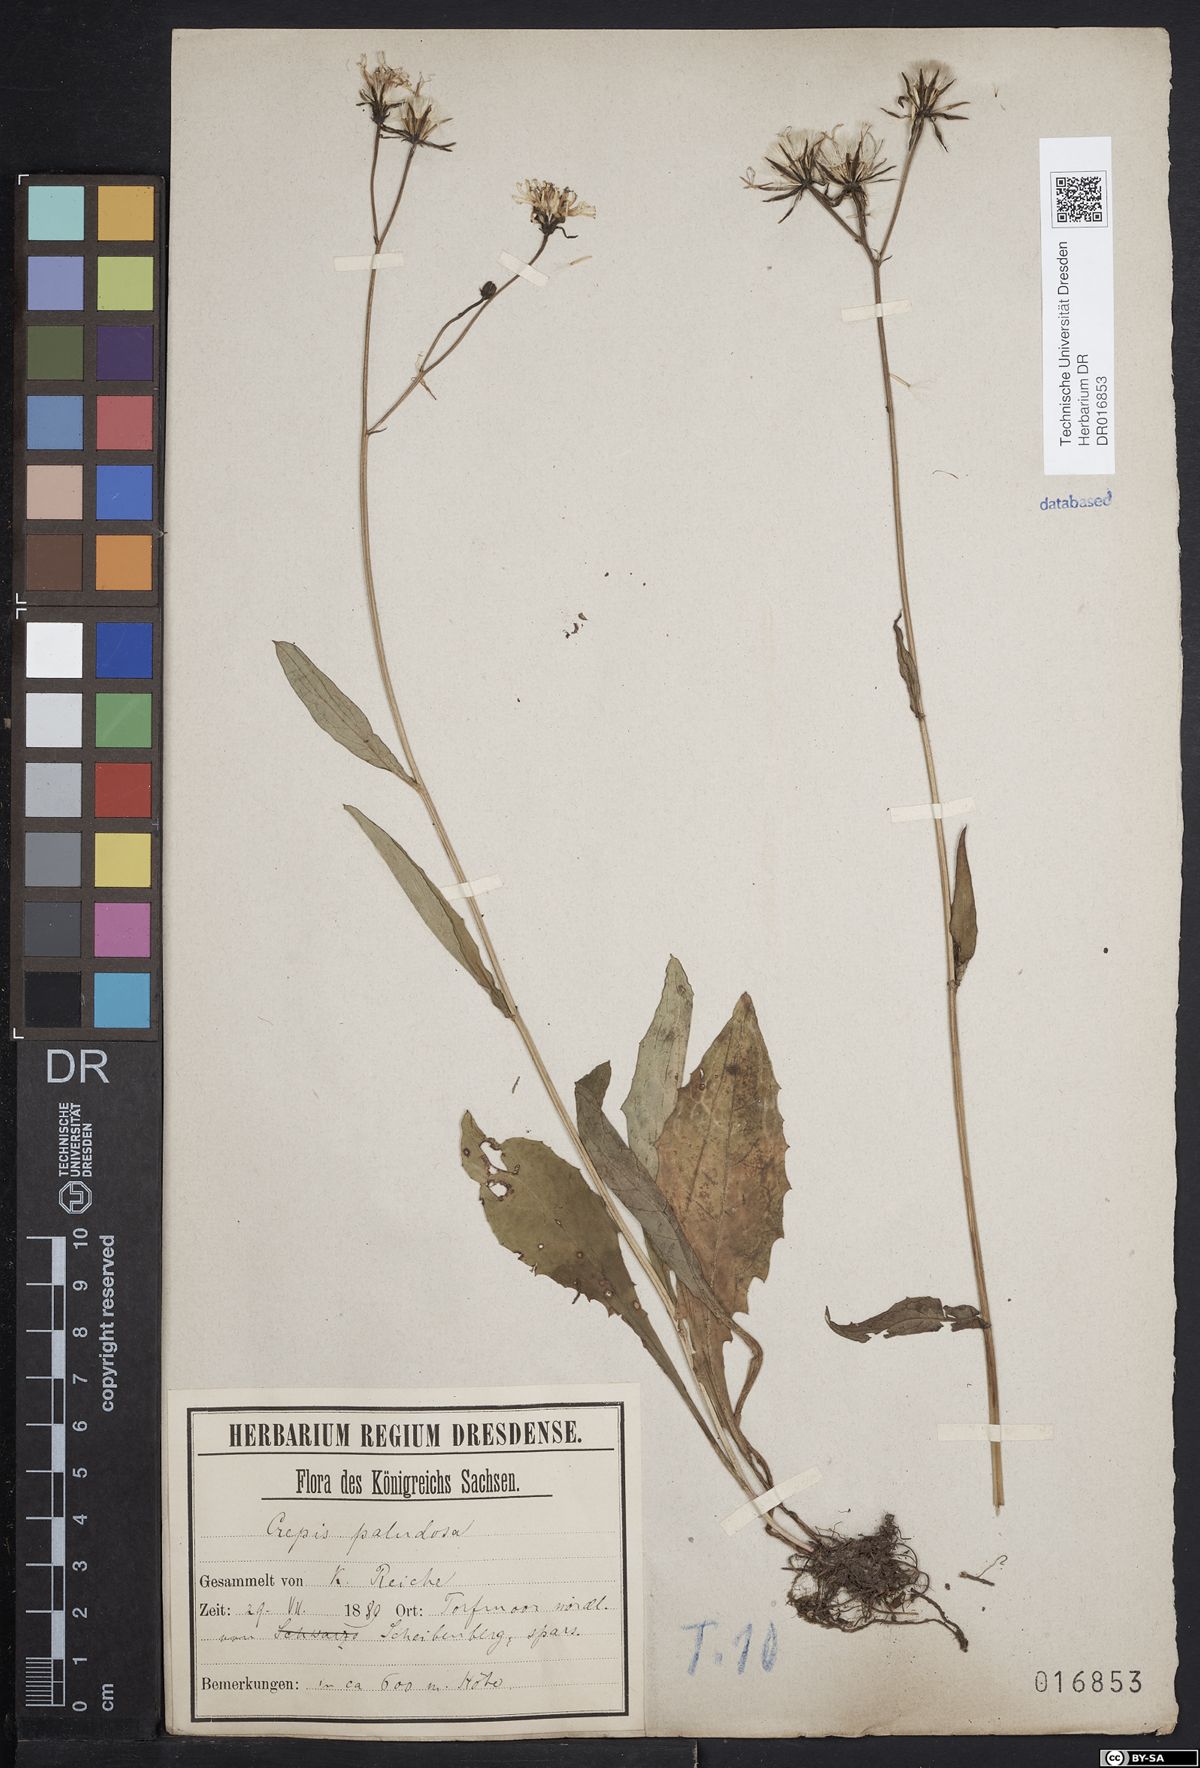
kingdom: Plantae
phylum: Tracheophyta
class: Magnoliopsida
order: Asterales
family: Asteraceae
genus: Crepis
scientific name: Crepis paludosa
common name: Marsh hawk's-beard
